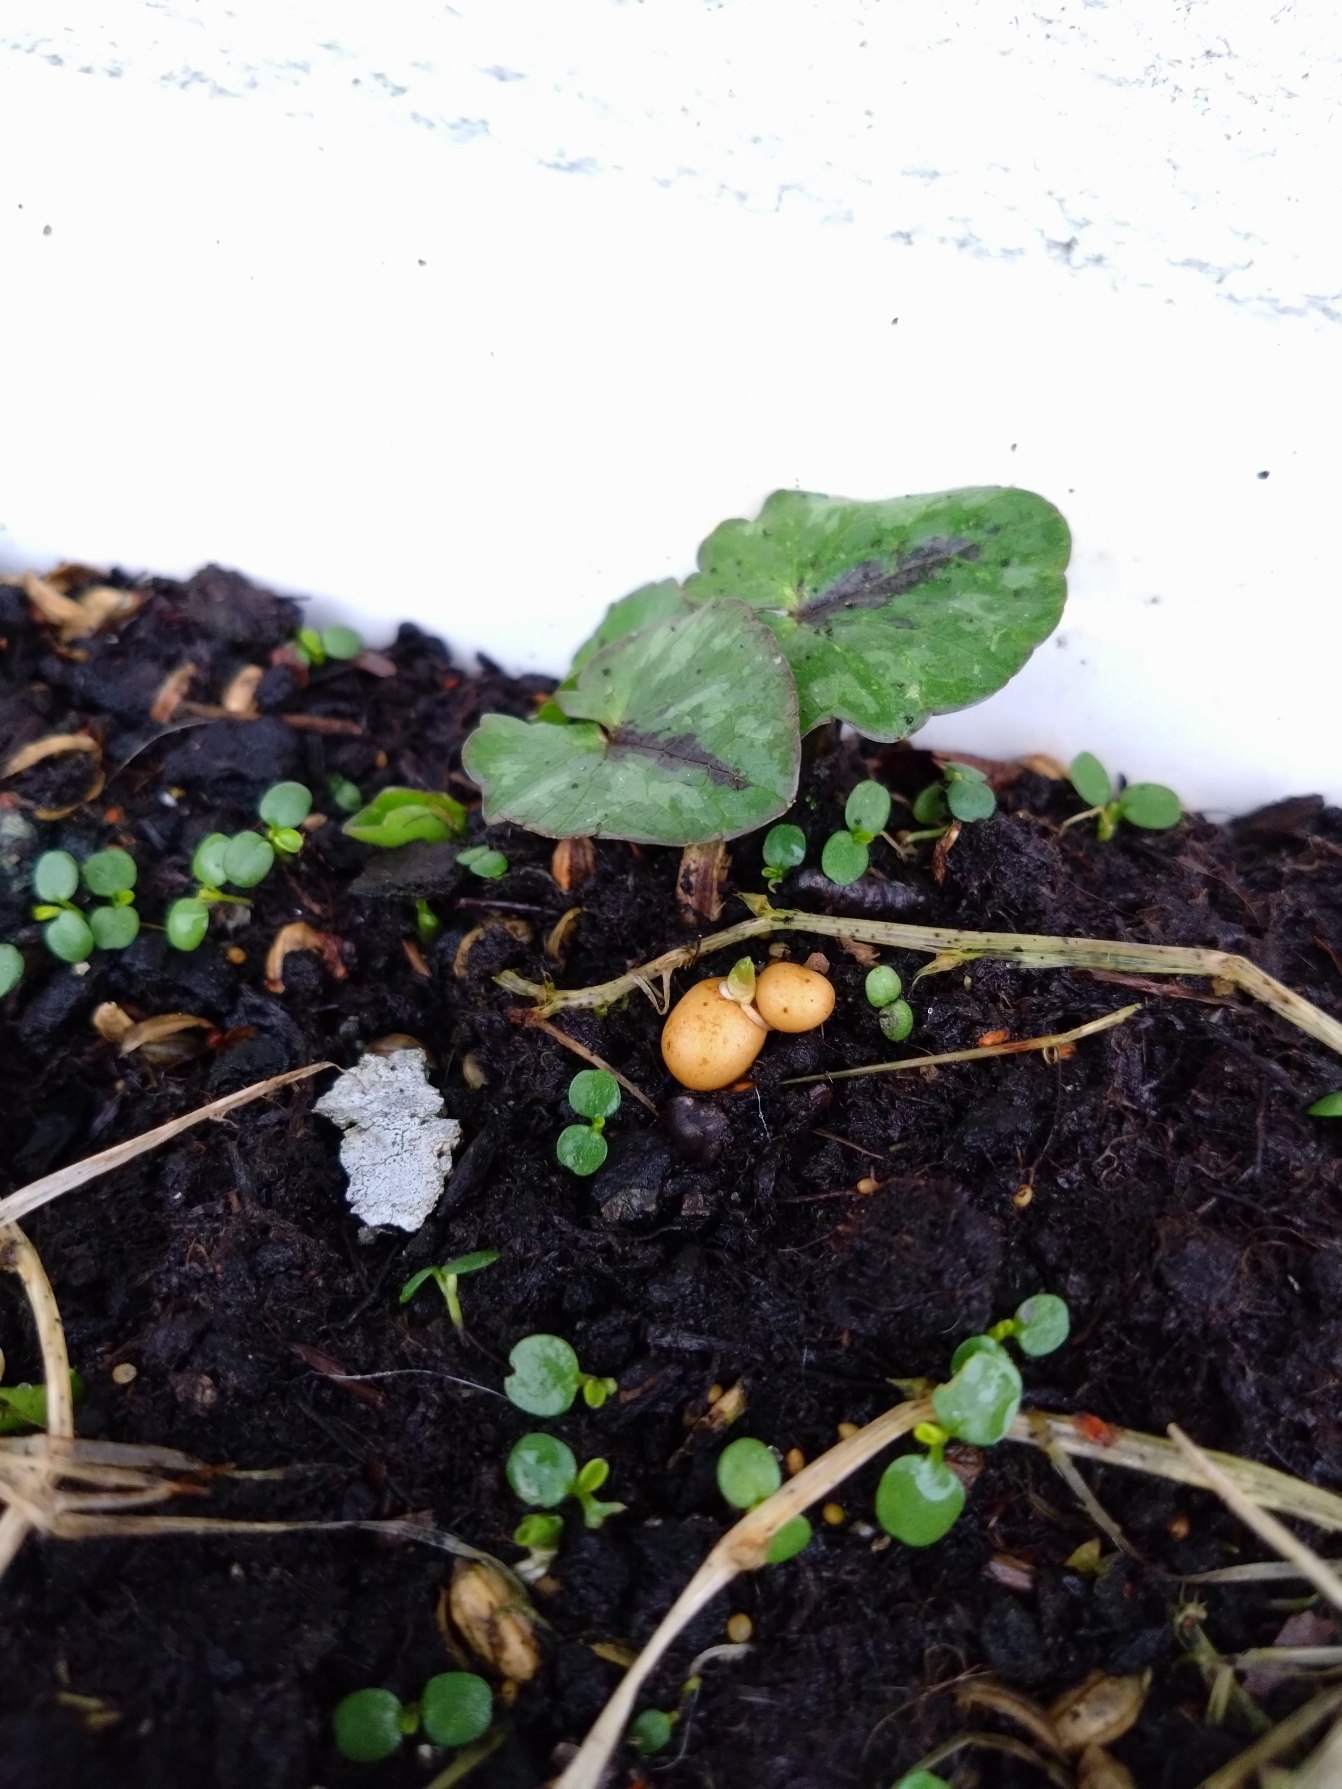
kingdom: Plantae
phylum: Tracheophyta
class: Magnoliopsida
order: Ranunculales
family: Ranunculaceae
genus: Ficaria
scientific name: Ficaria verna
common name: Vorterod
